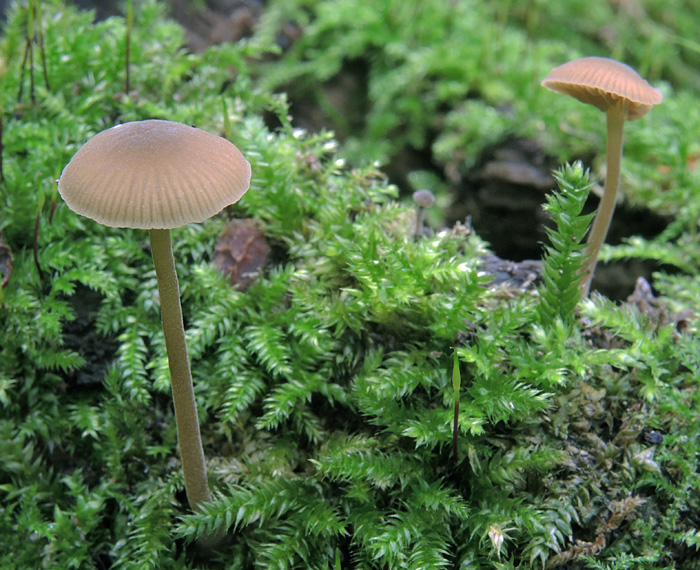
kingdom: Fungi
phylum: Basidiomycota
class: Agaricomycetes
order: Agaricales
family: Crepidotaceae
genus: Simocybe
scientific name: Simocybe centunculus
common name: enlig skyggehat
